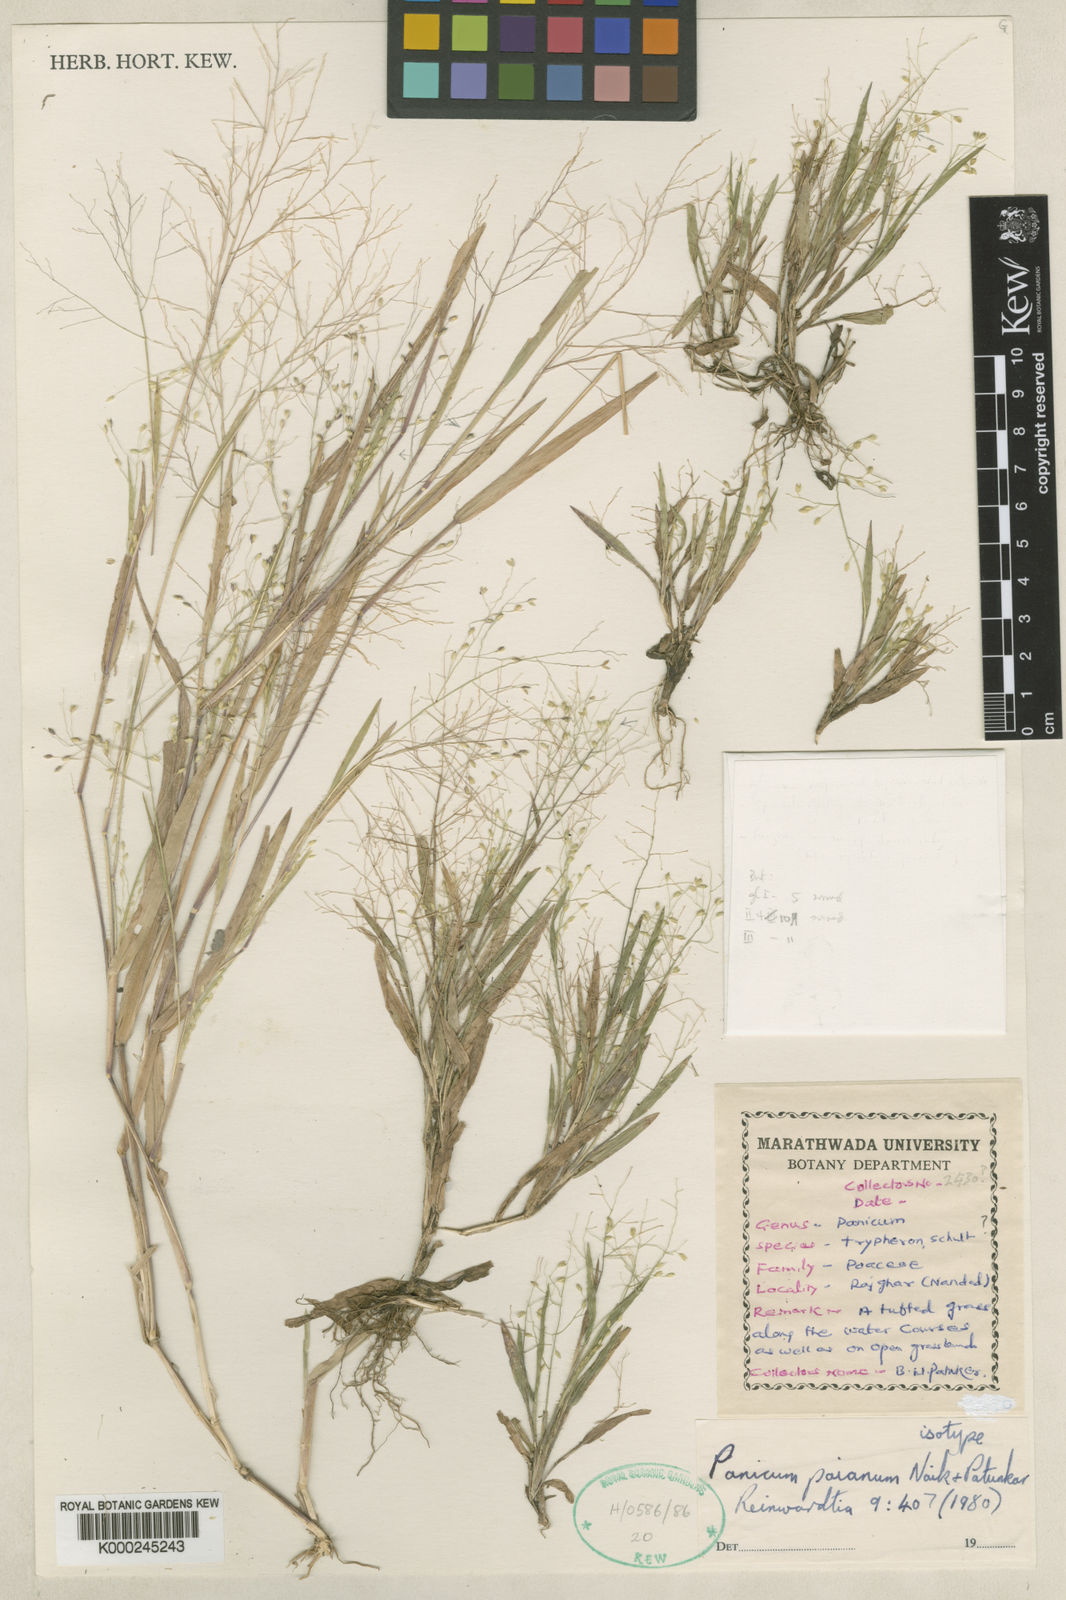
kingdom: Plantae
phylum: Tracheophyta
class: Liliopsida
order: Poales
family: Poaceae
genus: Panicum
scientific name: Panicum paianum
